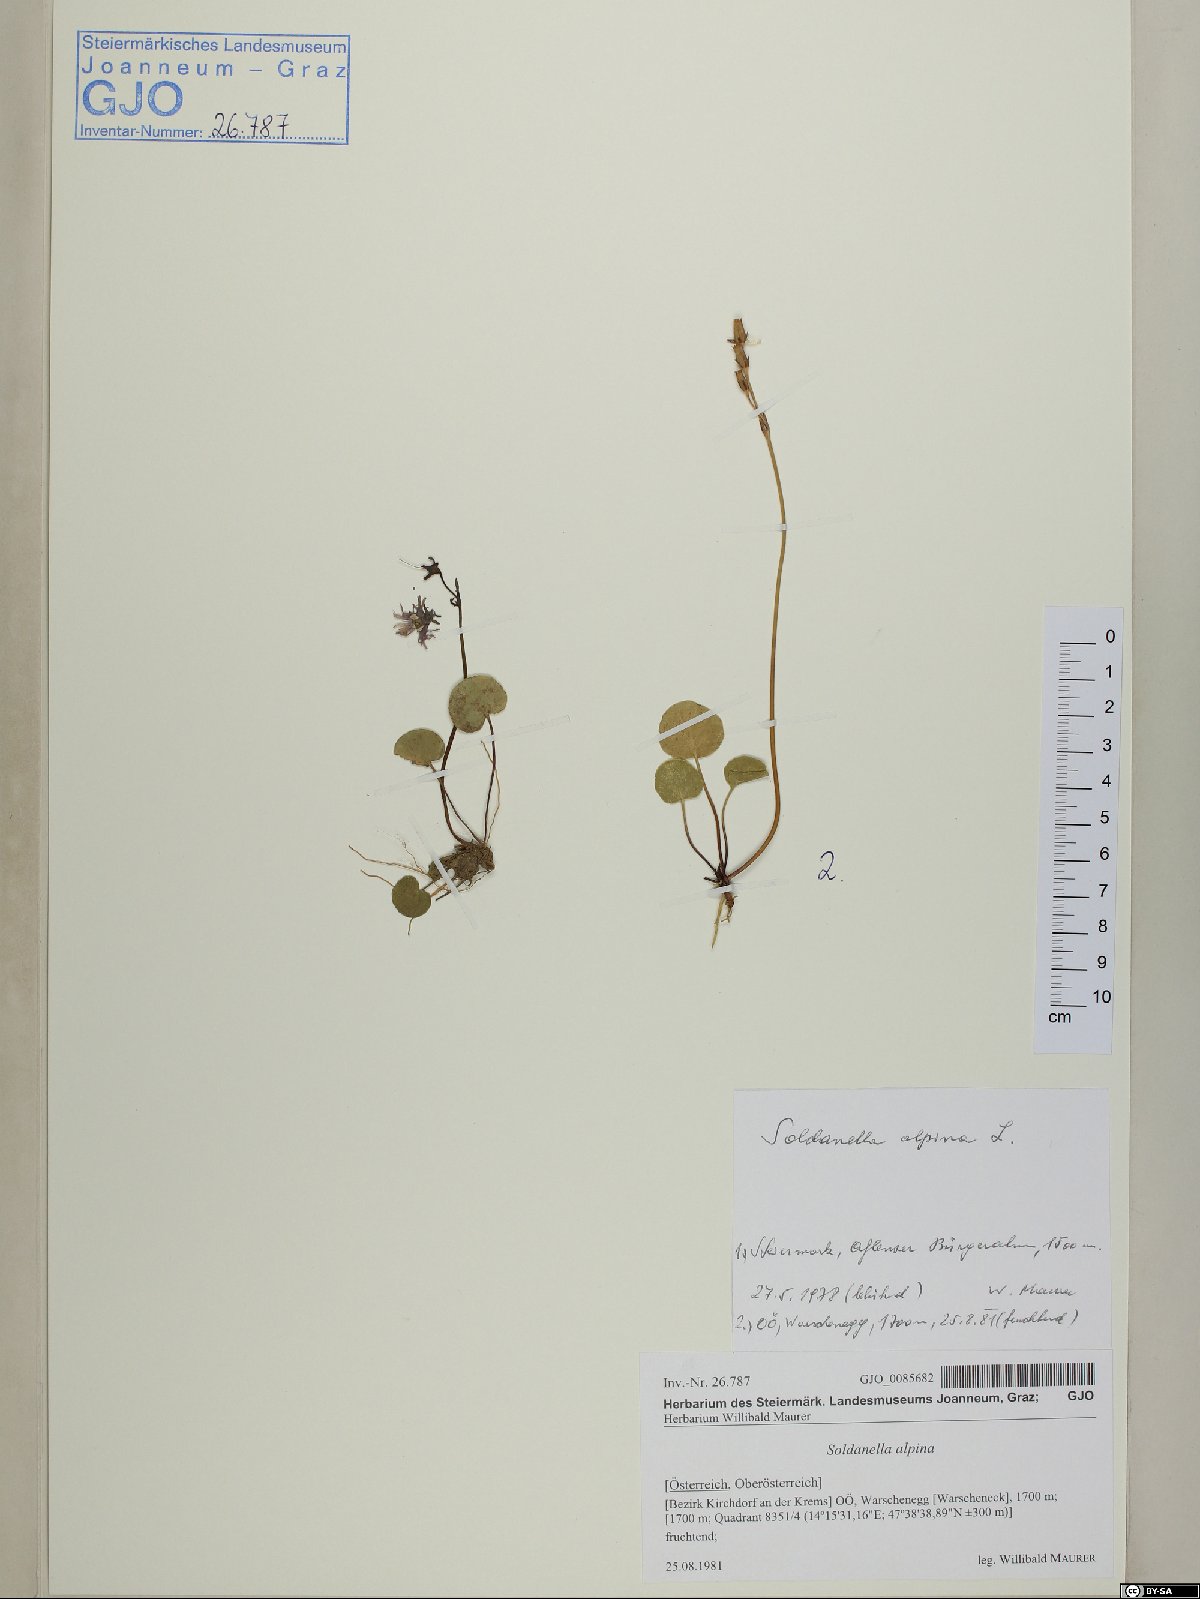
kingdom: Plantae
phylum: Tracheophyta
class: Magnoliopsida
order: Ericales
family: Primulaceae
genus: Soldanella
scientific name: Soldanella alpina
